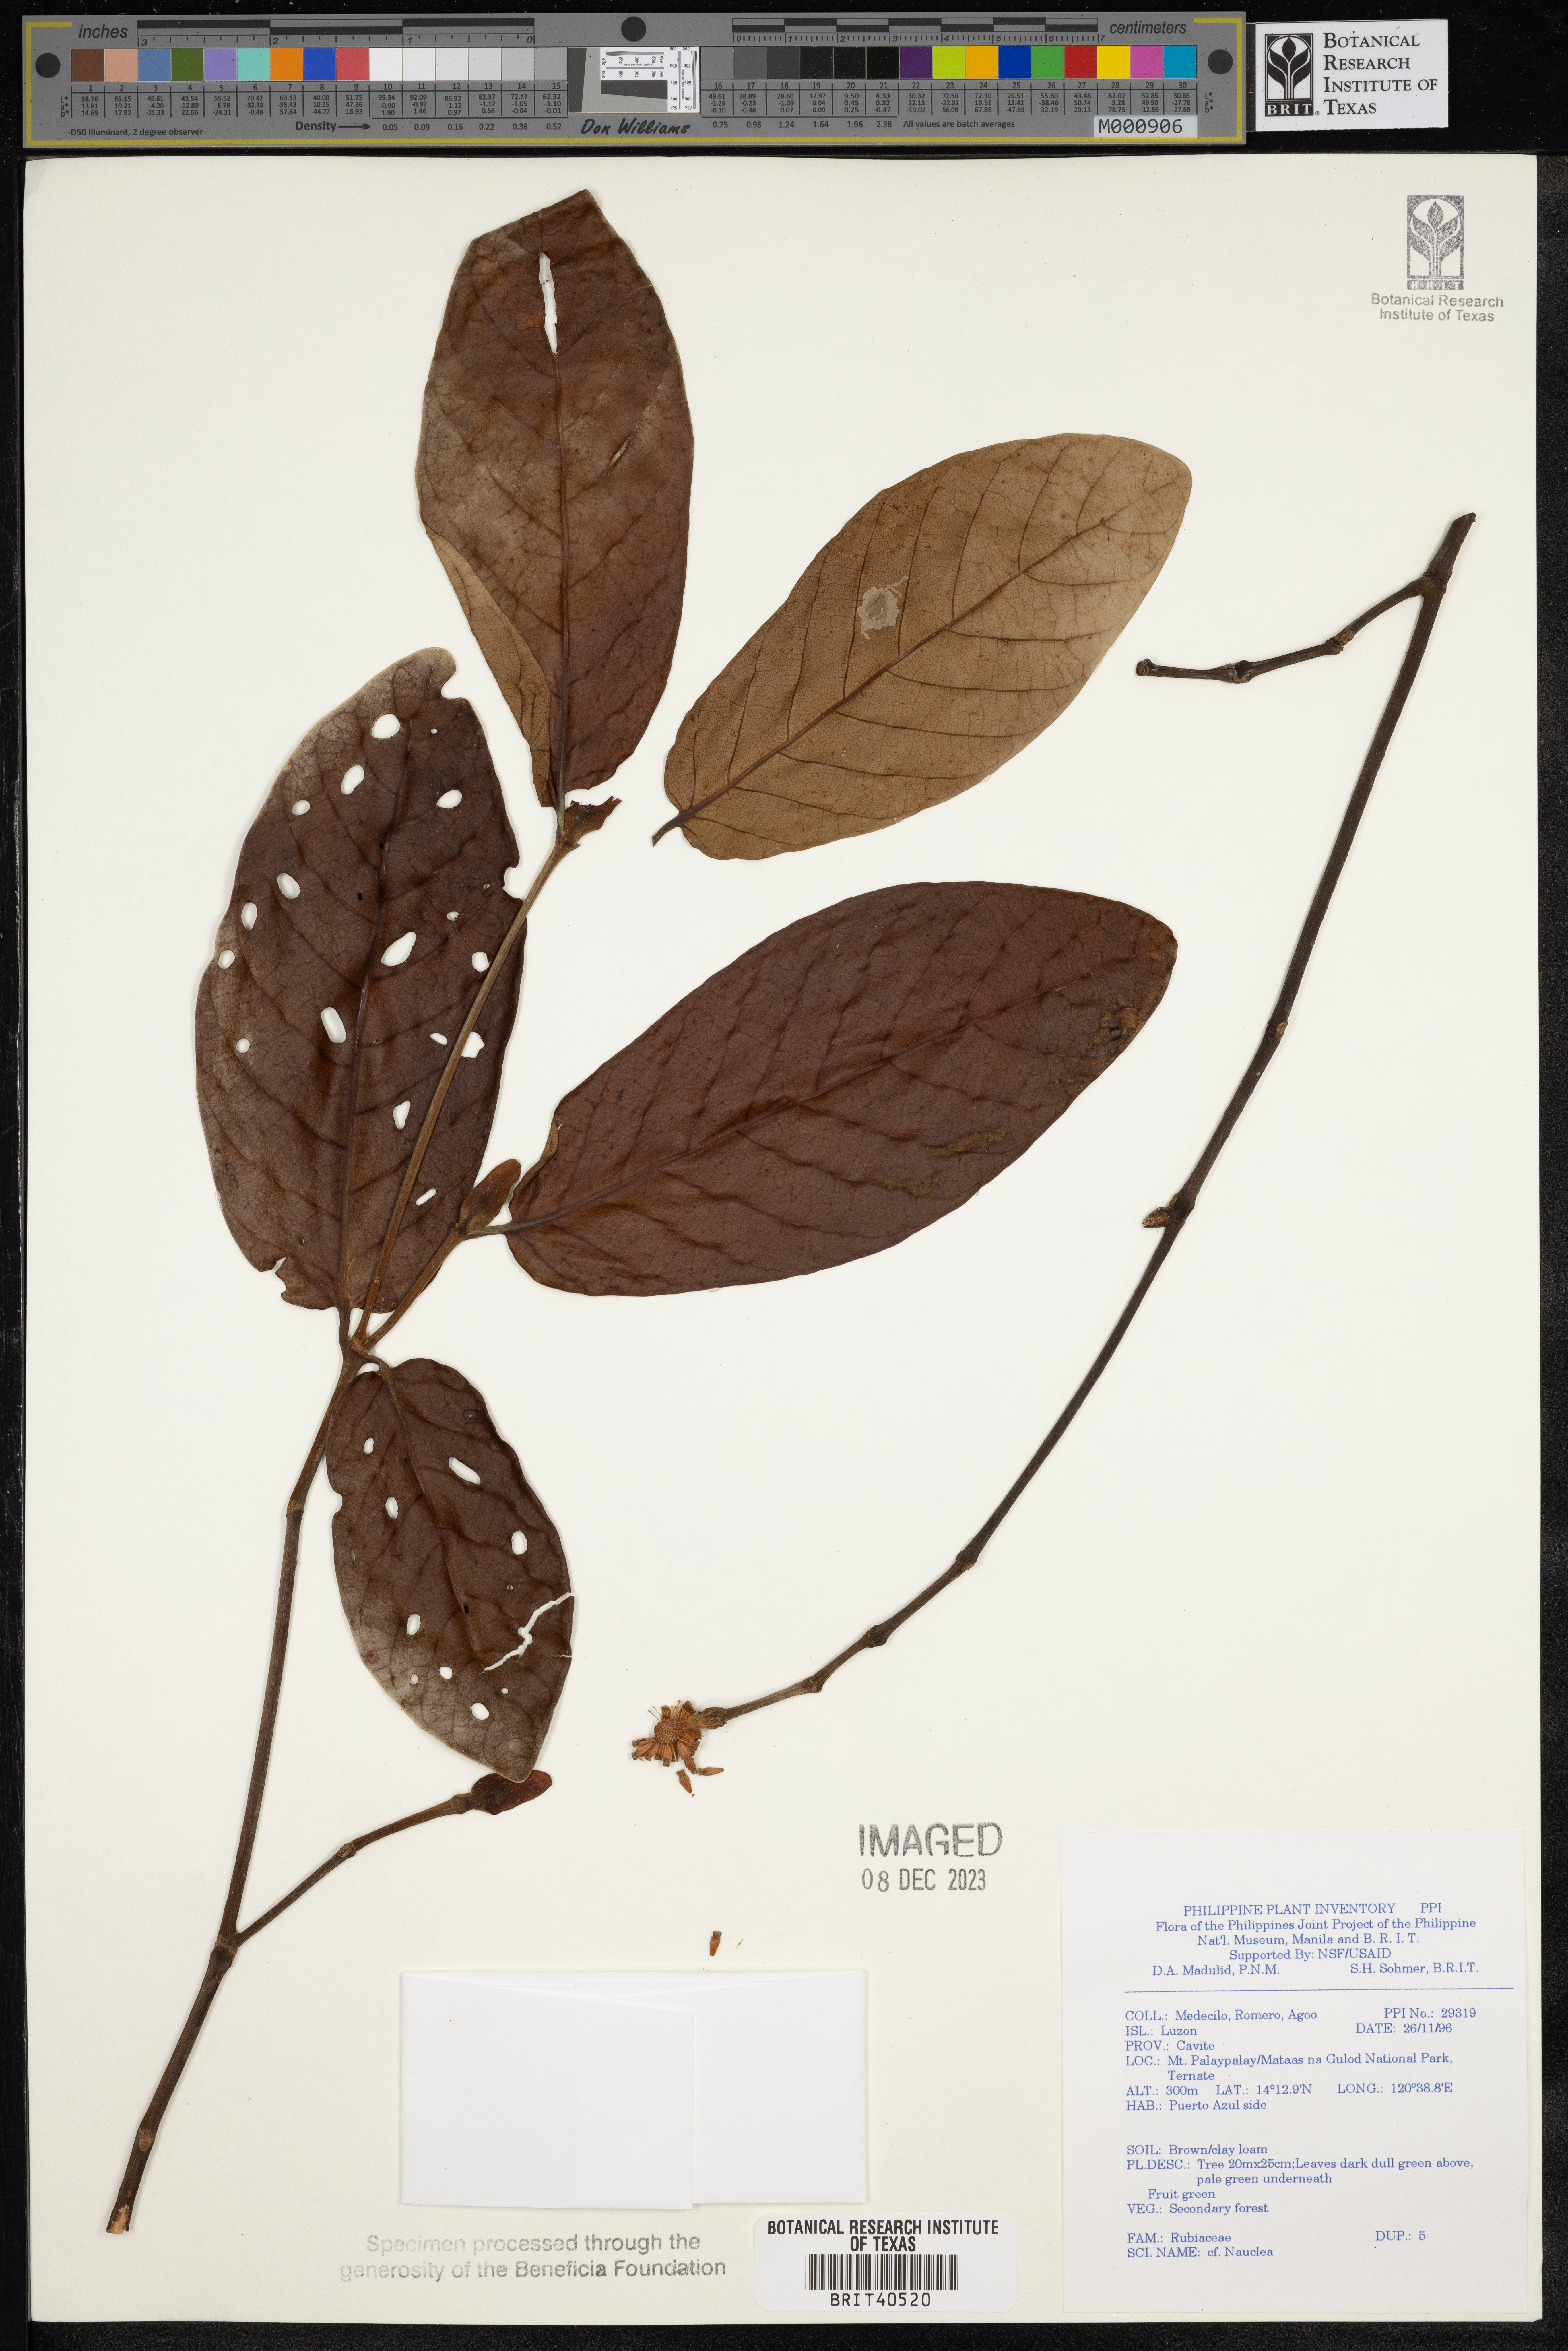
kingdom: Plantae
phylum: Tracheophyta
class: Magnoliopsida
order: Gentianales
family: Rubiaceae
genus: Nauclea
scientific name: Nauclea
